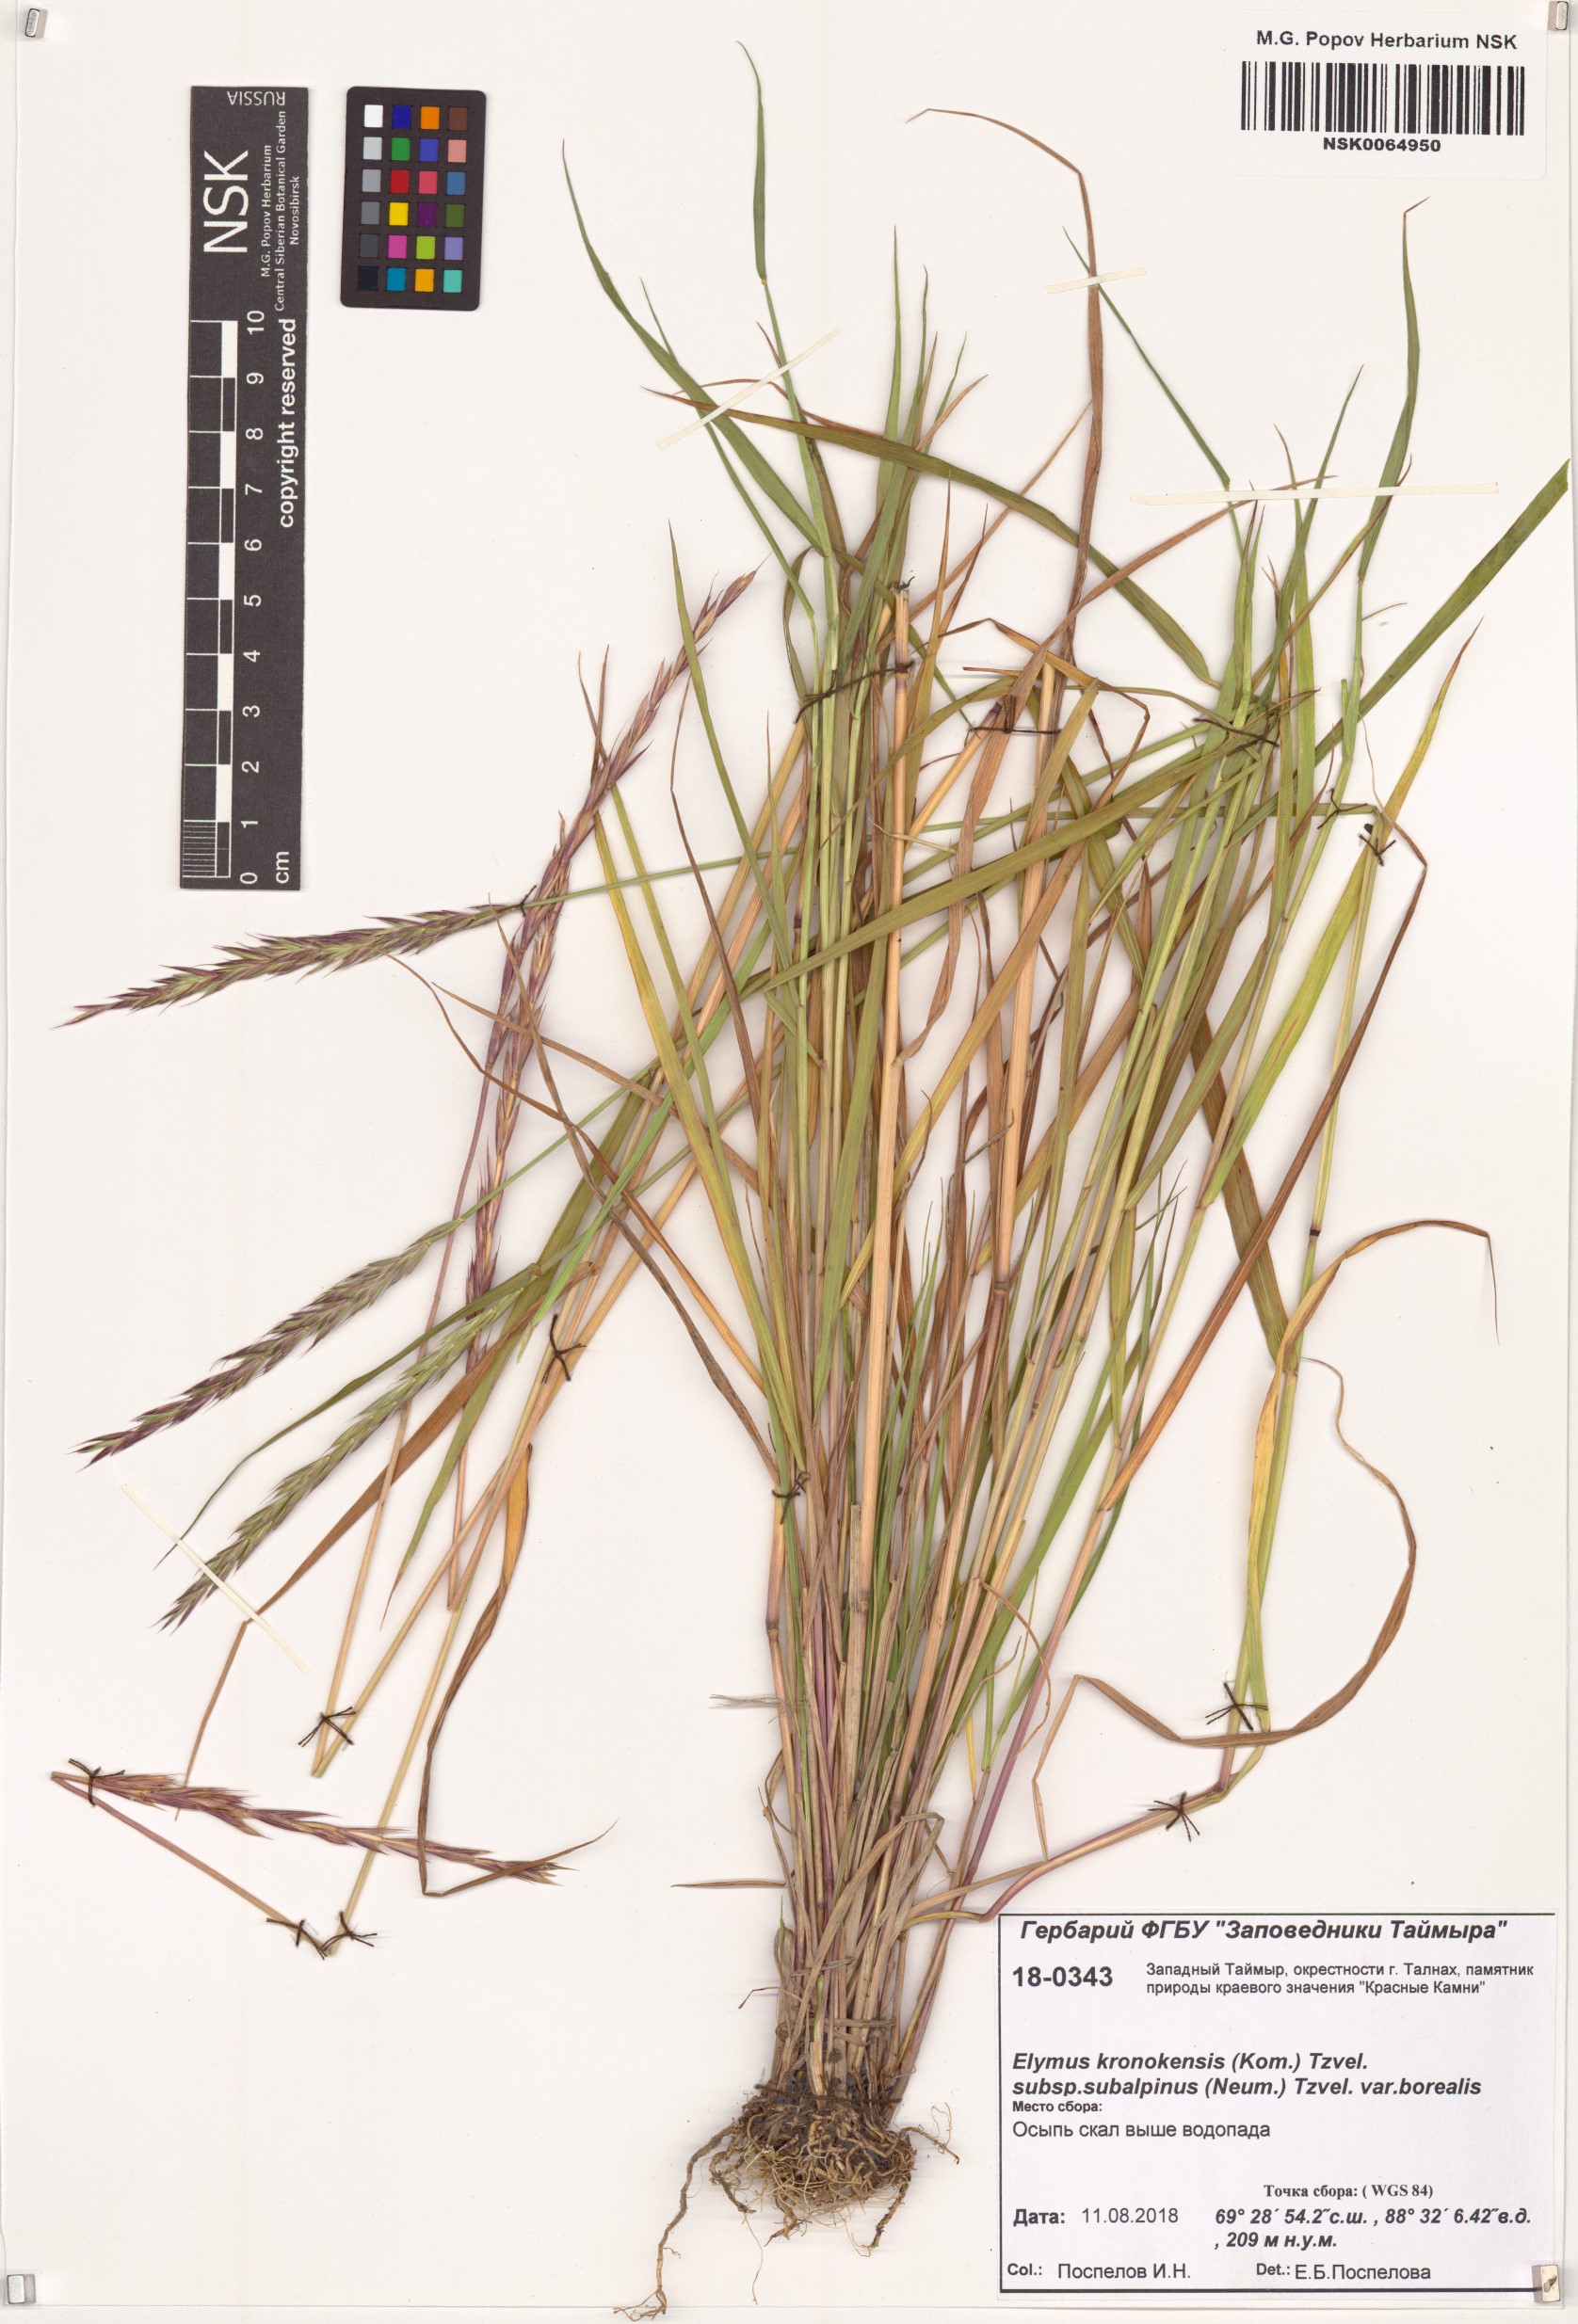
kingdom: Plantae
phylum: Tracheophyta
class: Liliopsida
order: Poales
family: Poaceae
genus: Elymus
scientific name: Elymus macrourus
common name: Northern wheatgrass
